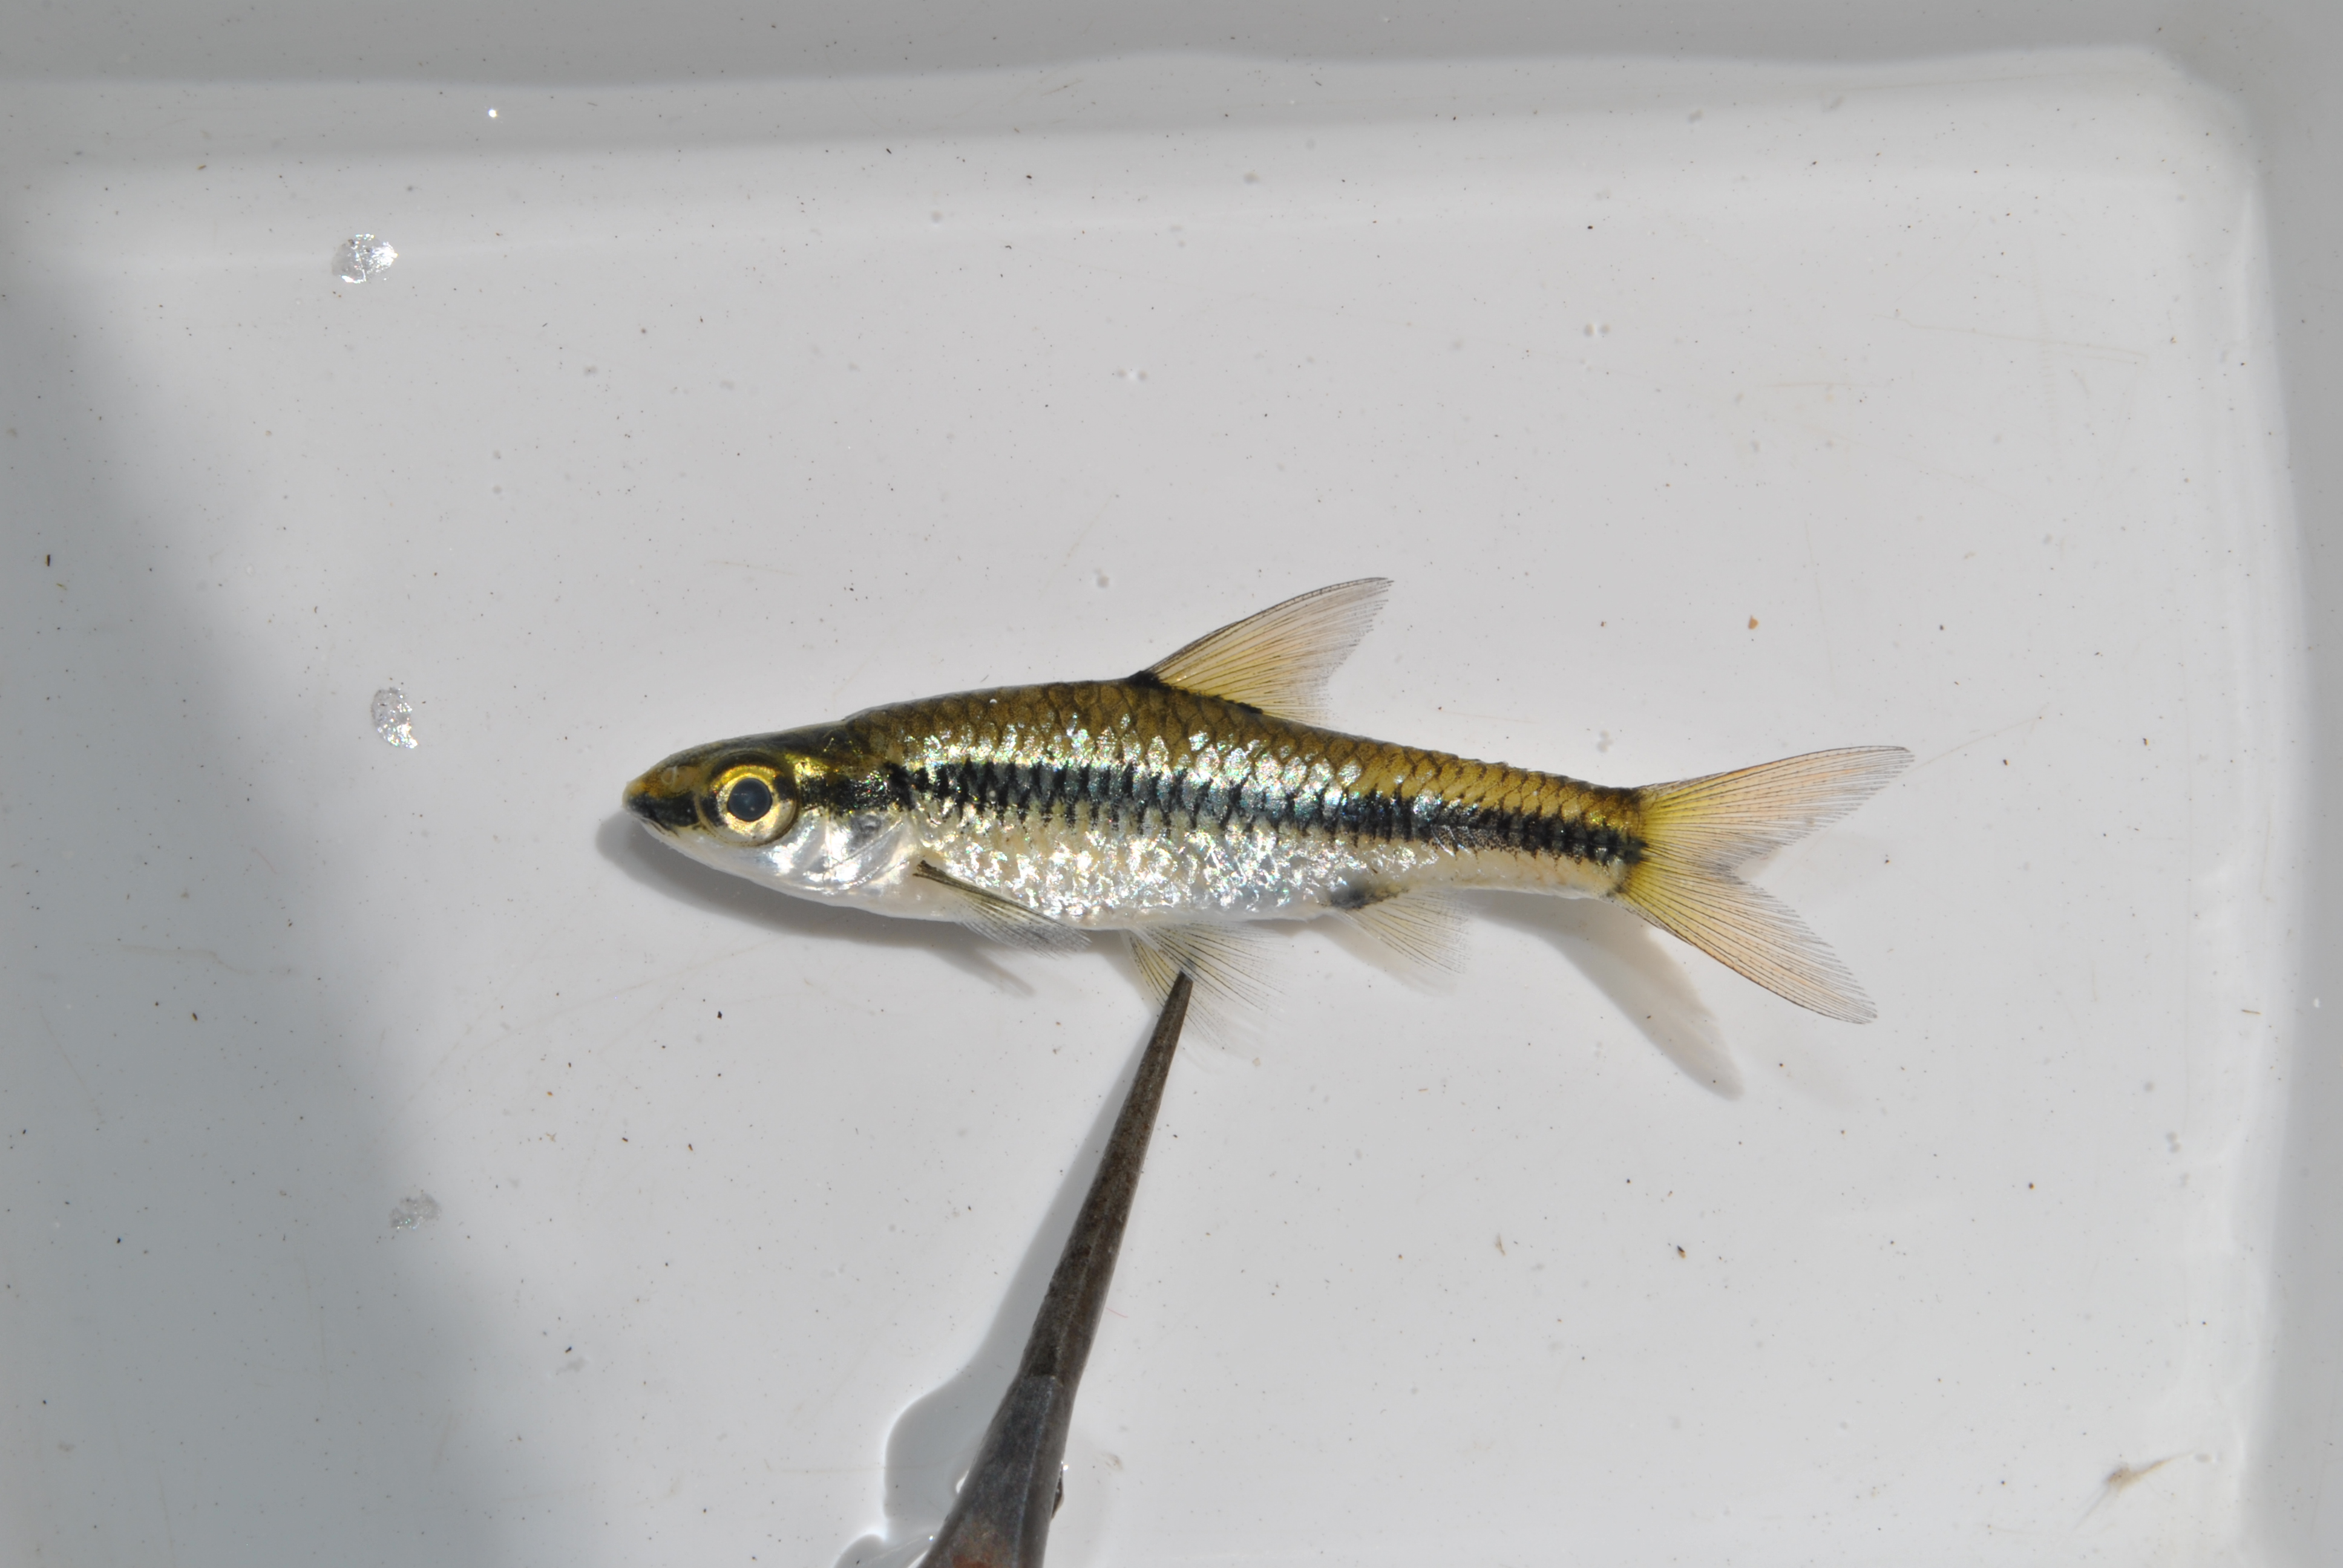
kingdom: Animalia
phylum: Chordata
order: Cypriniformes
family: Cyprinidae
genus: Enteromius
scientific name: Enteromius barnardi
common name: Blackback barb
